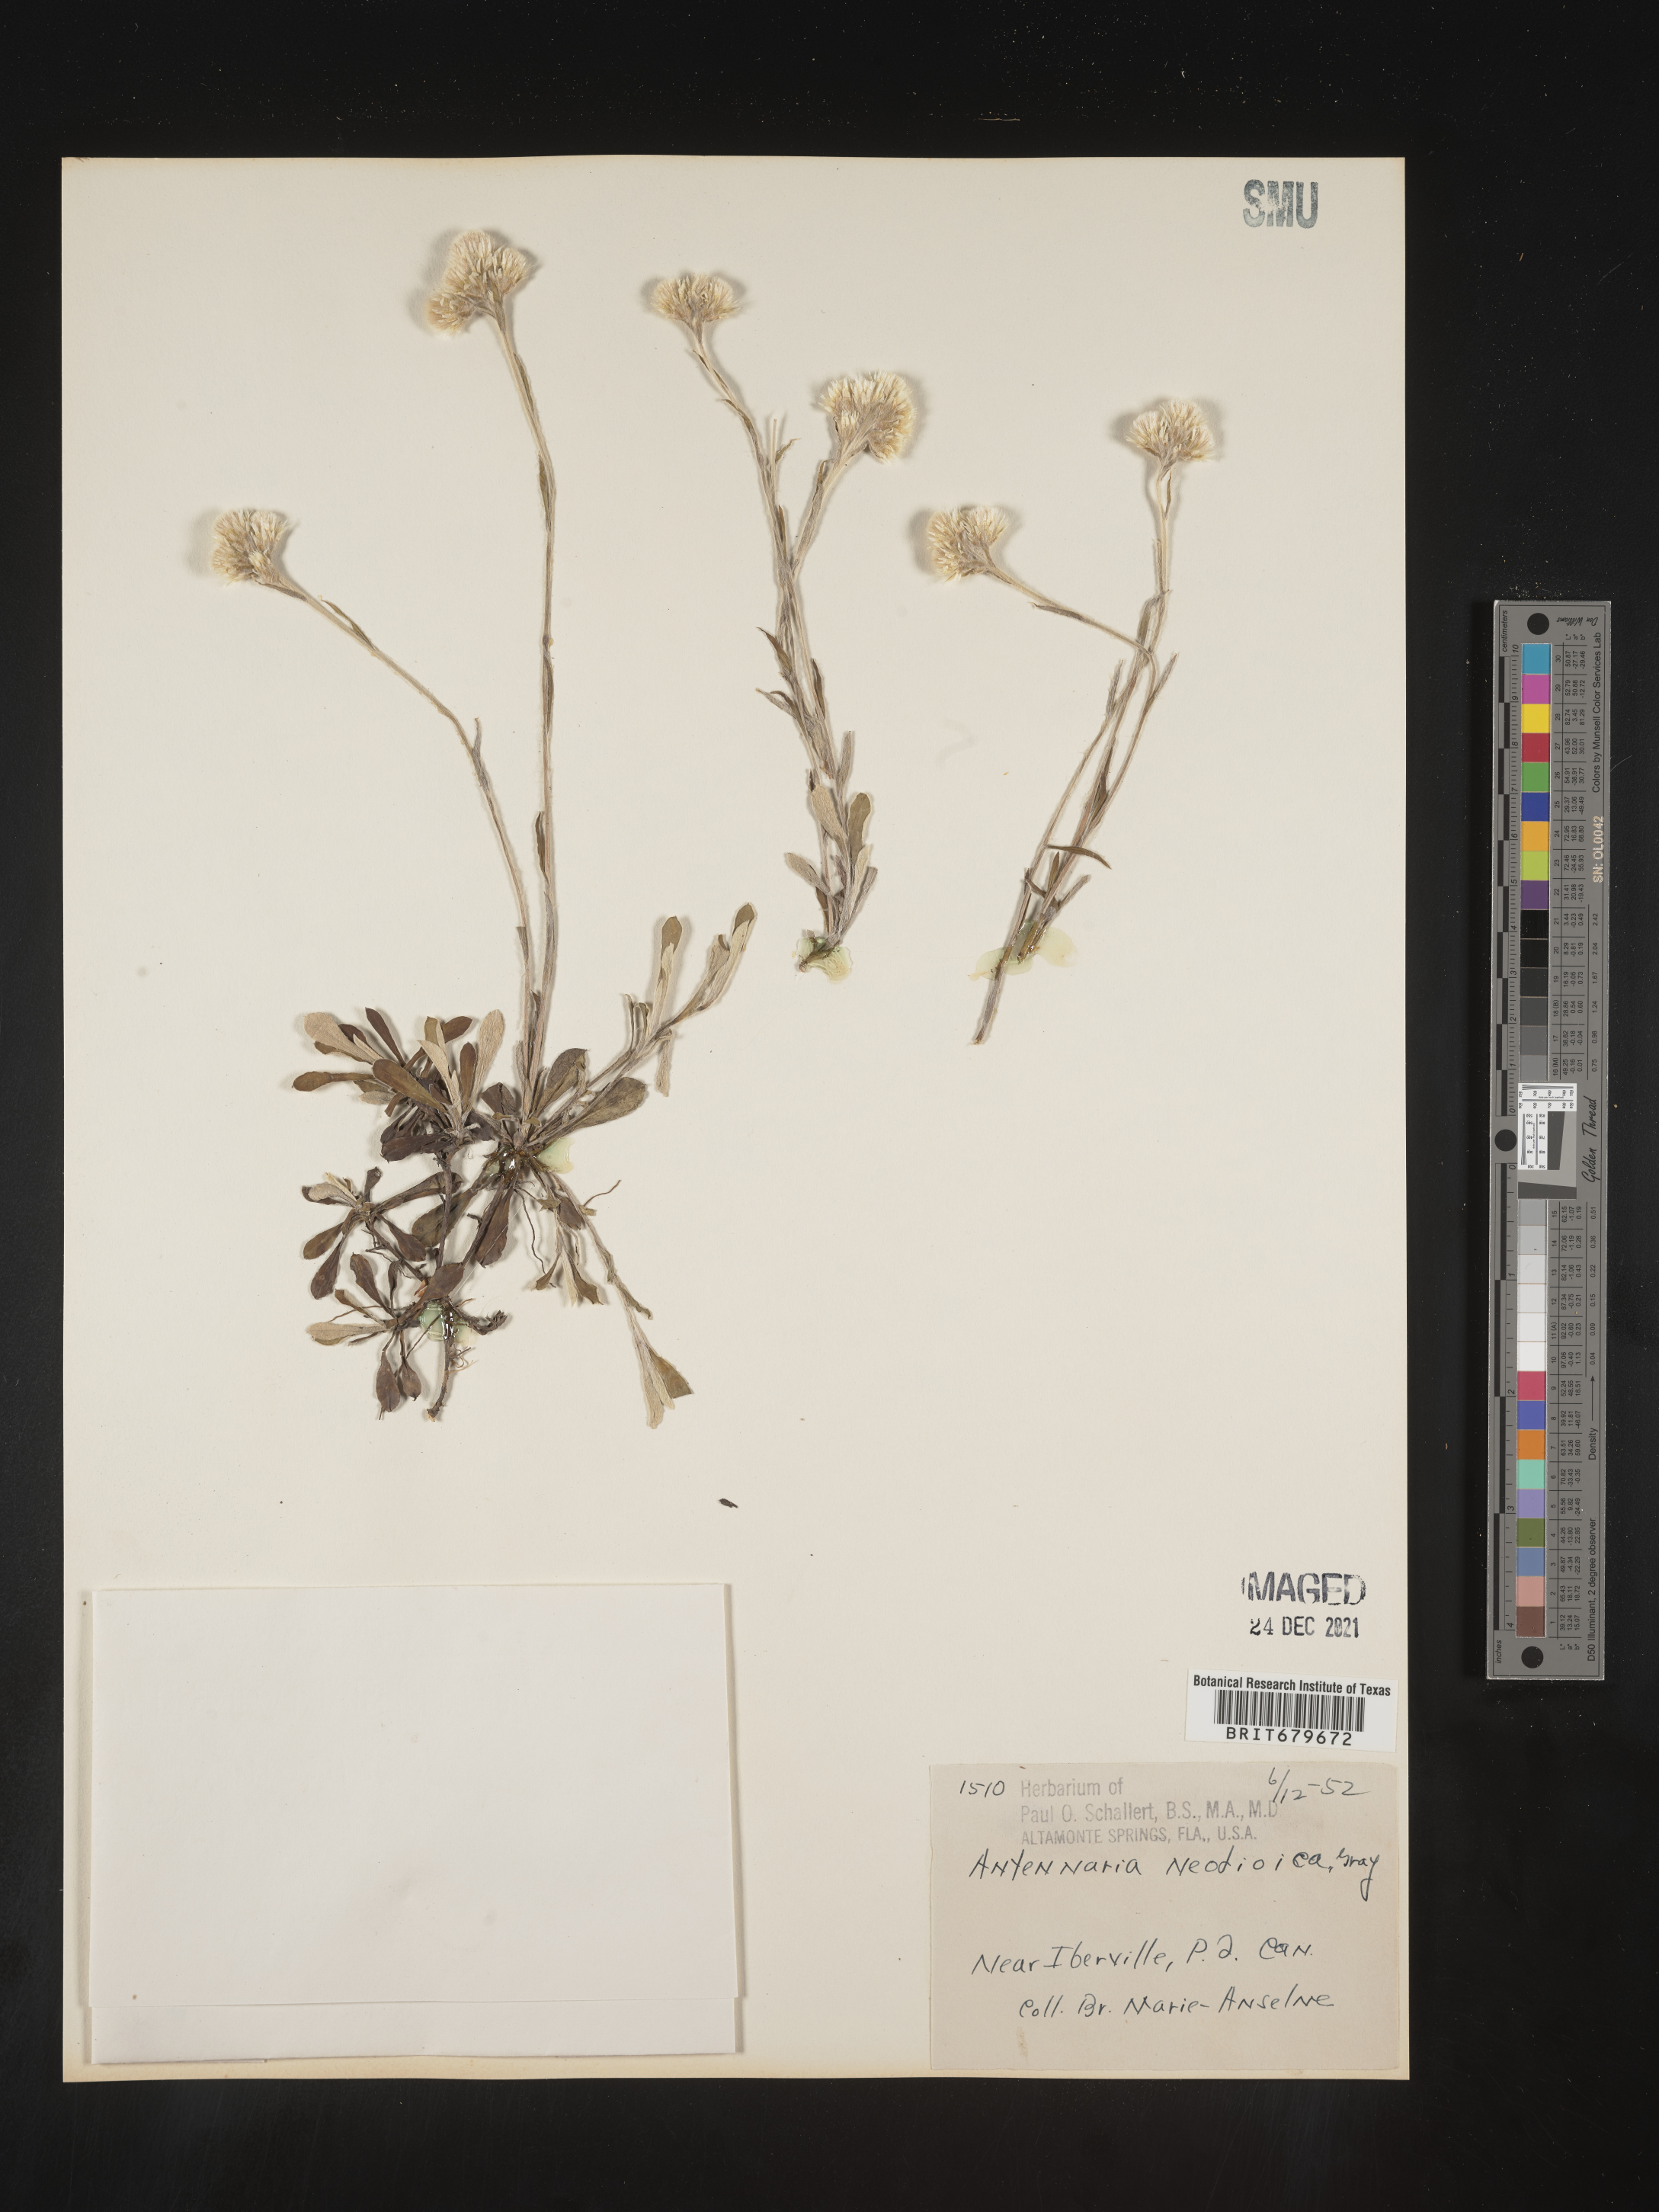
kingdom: Plantae
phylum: Tracheophyta
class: Magnoliopsida
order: Asterales
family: Asteraceae
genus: Antennaria
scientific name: Antennaria howellii
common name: Howell's pussytoes
